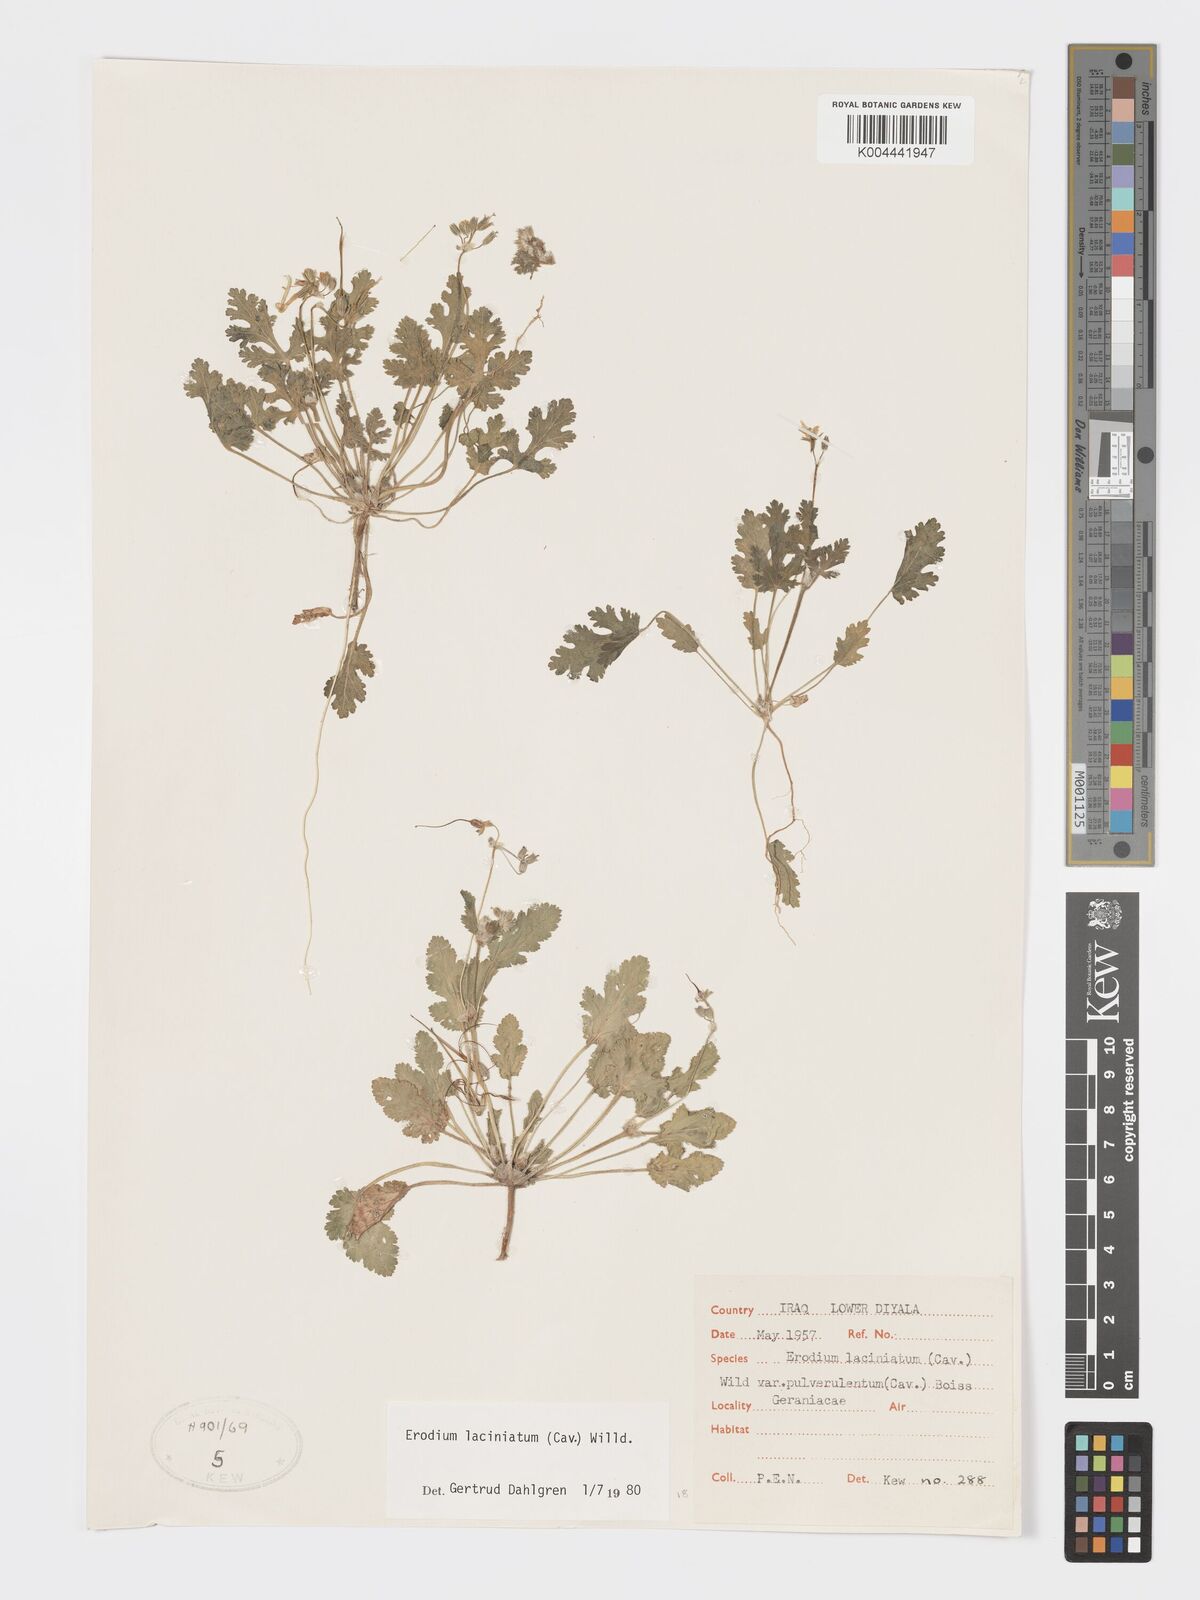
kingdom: Plantae
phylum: Tracheophyta
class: Magnoliopsida
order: Geraniales
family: Geraniaceae
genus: Erodium
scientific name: Erodium laciniatum
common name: Cutleaf stork's bill
